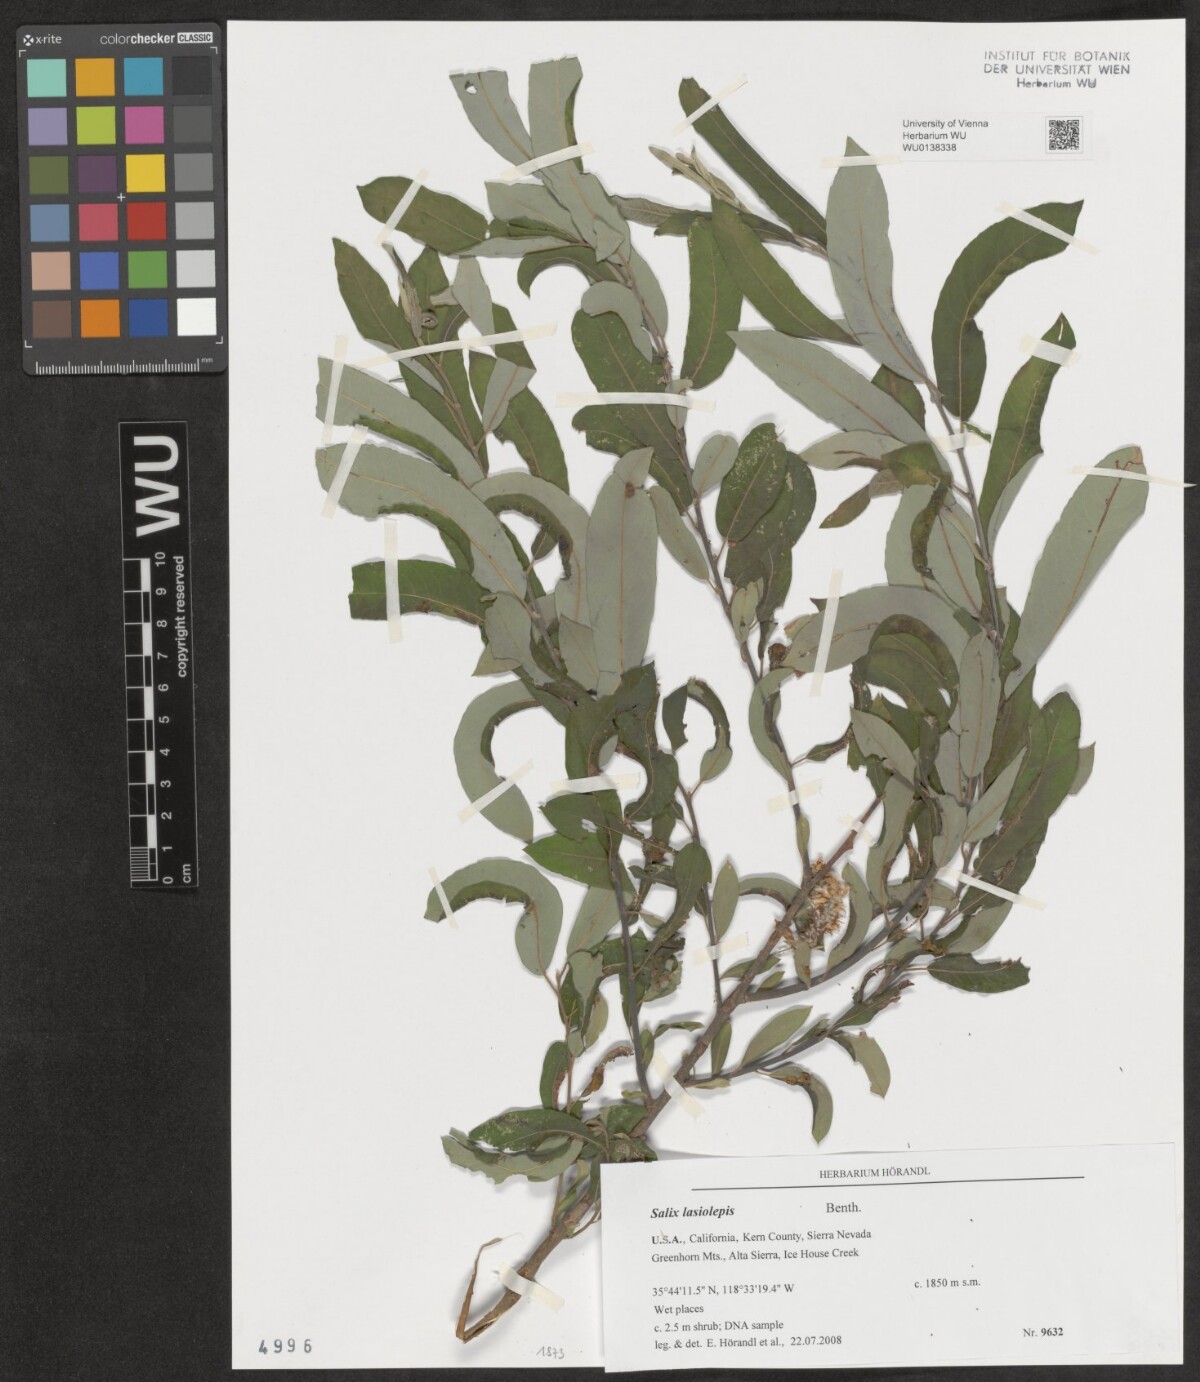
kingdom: Plantae
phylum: Tracheophyta
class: Magnoliopsida
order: Malpighiales
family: Salicaceae
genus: Salix
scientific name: Salix lasiolepis
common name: Arroyo willow
